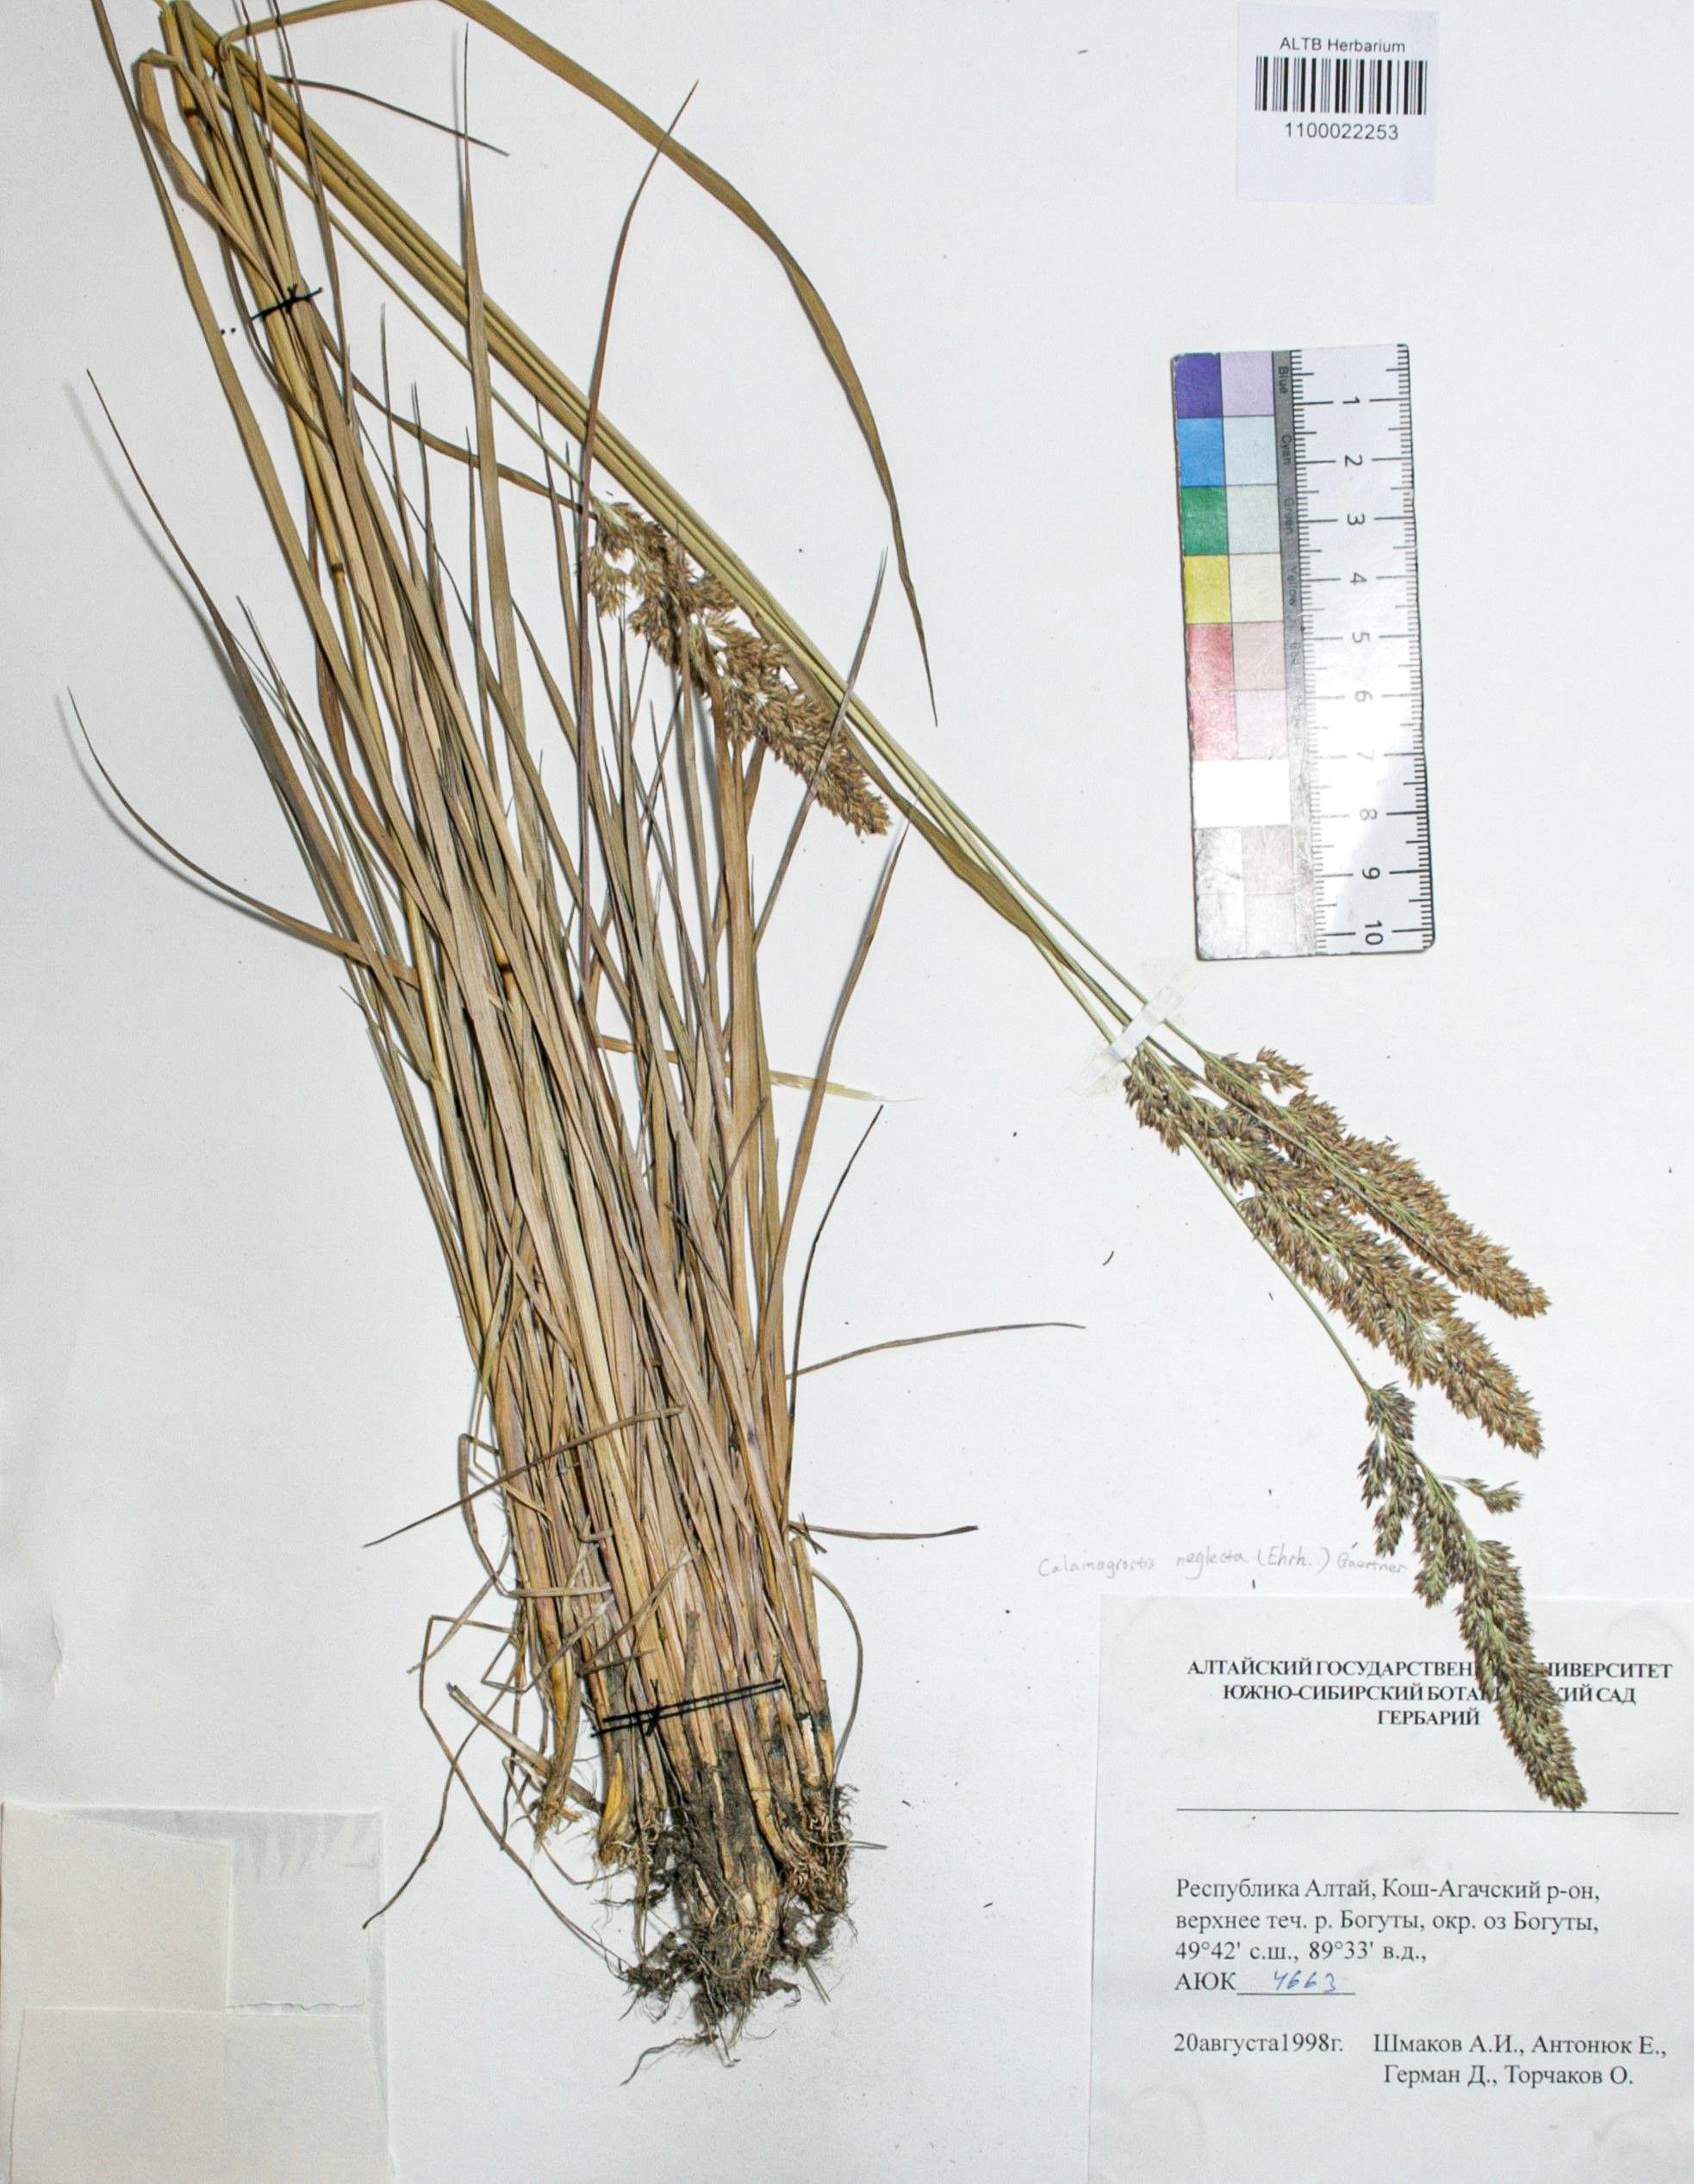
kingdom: Plantae
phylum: Tracheophyta
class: Liliopsida
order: Poales
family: Poaceae
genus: Achnatherum
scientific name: Achnatherum calamagrostis
